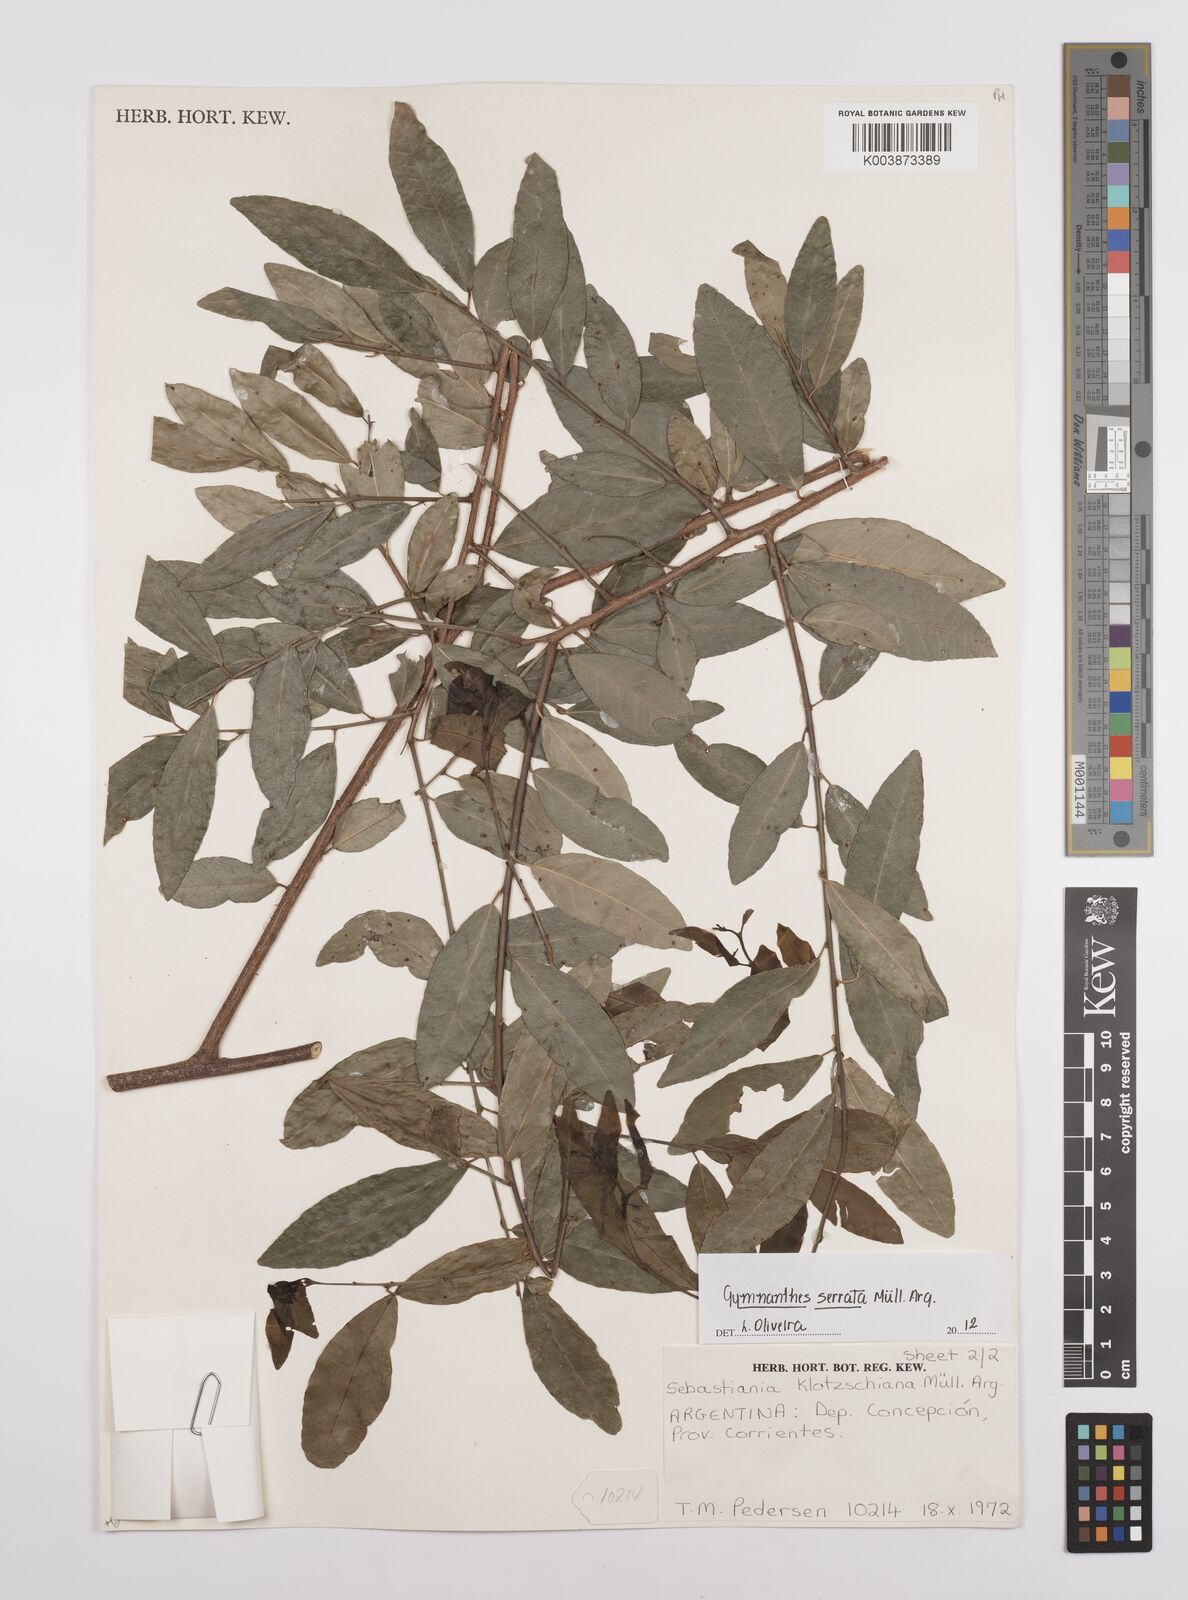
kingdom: Plantae
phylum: Tracheophyta
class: Magnoliopsida
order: Malpighiales
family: Euphorbiaceae
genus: Sebastiania
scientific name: Sebastiania serrata
